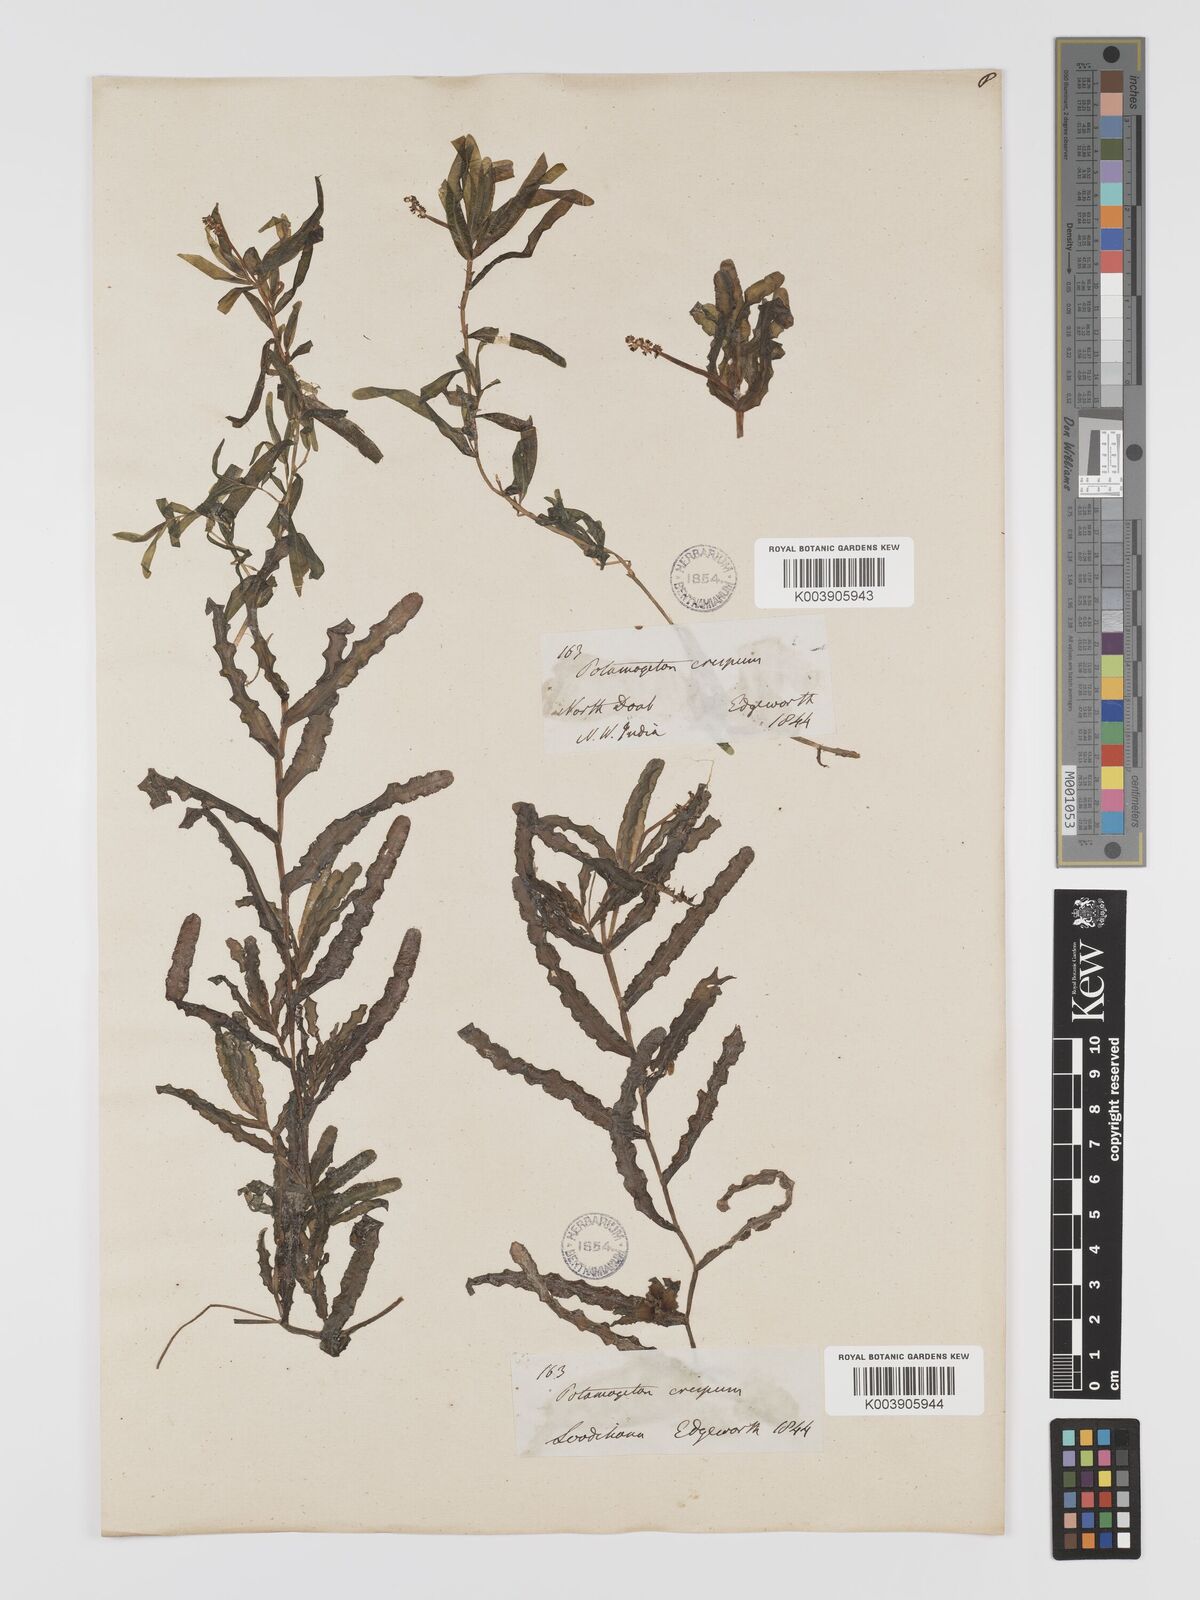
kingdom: Plantae
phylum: Tracheophyta
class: Liliopsida
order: Alismatales
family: Potamogetonaceae
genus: Potamogeton
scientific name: Potamogeton crispus
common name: Curled pondweed
